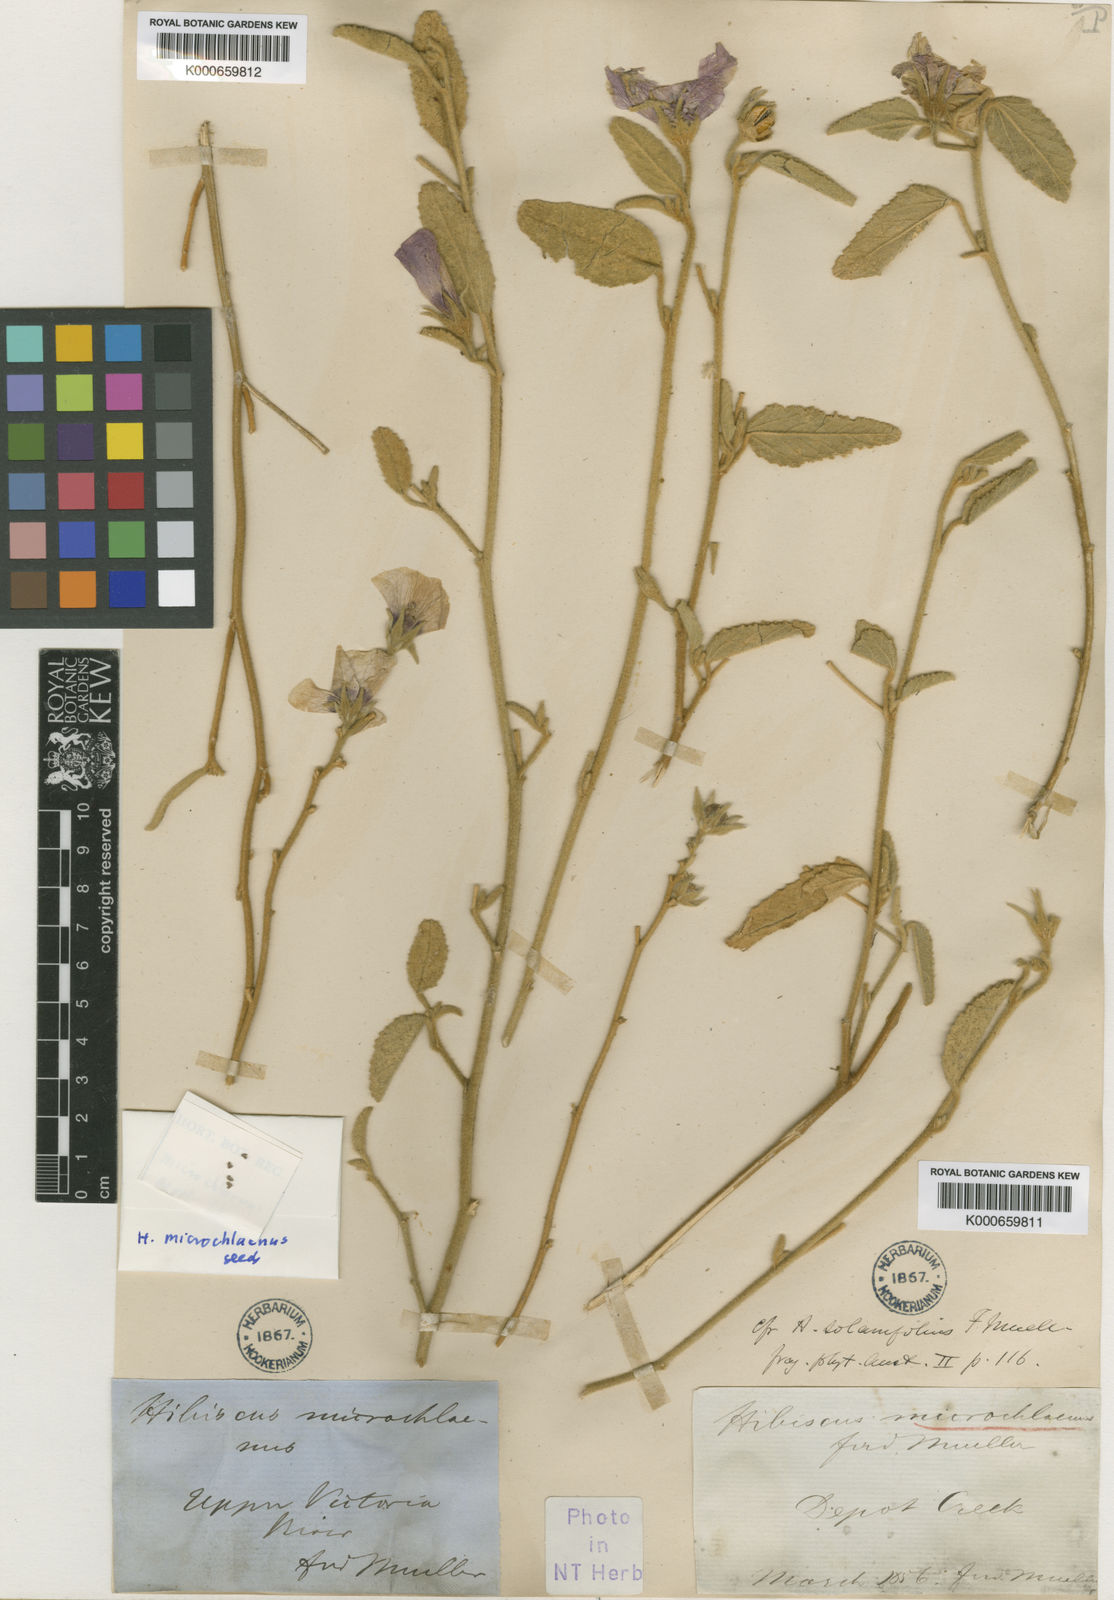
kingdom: Plantae
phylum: Tracheophyta
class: Magnoliopsida
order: Malvales
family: Malvaceae
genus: Hibiscus
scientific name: Hibiscus brachychlaenus
